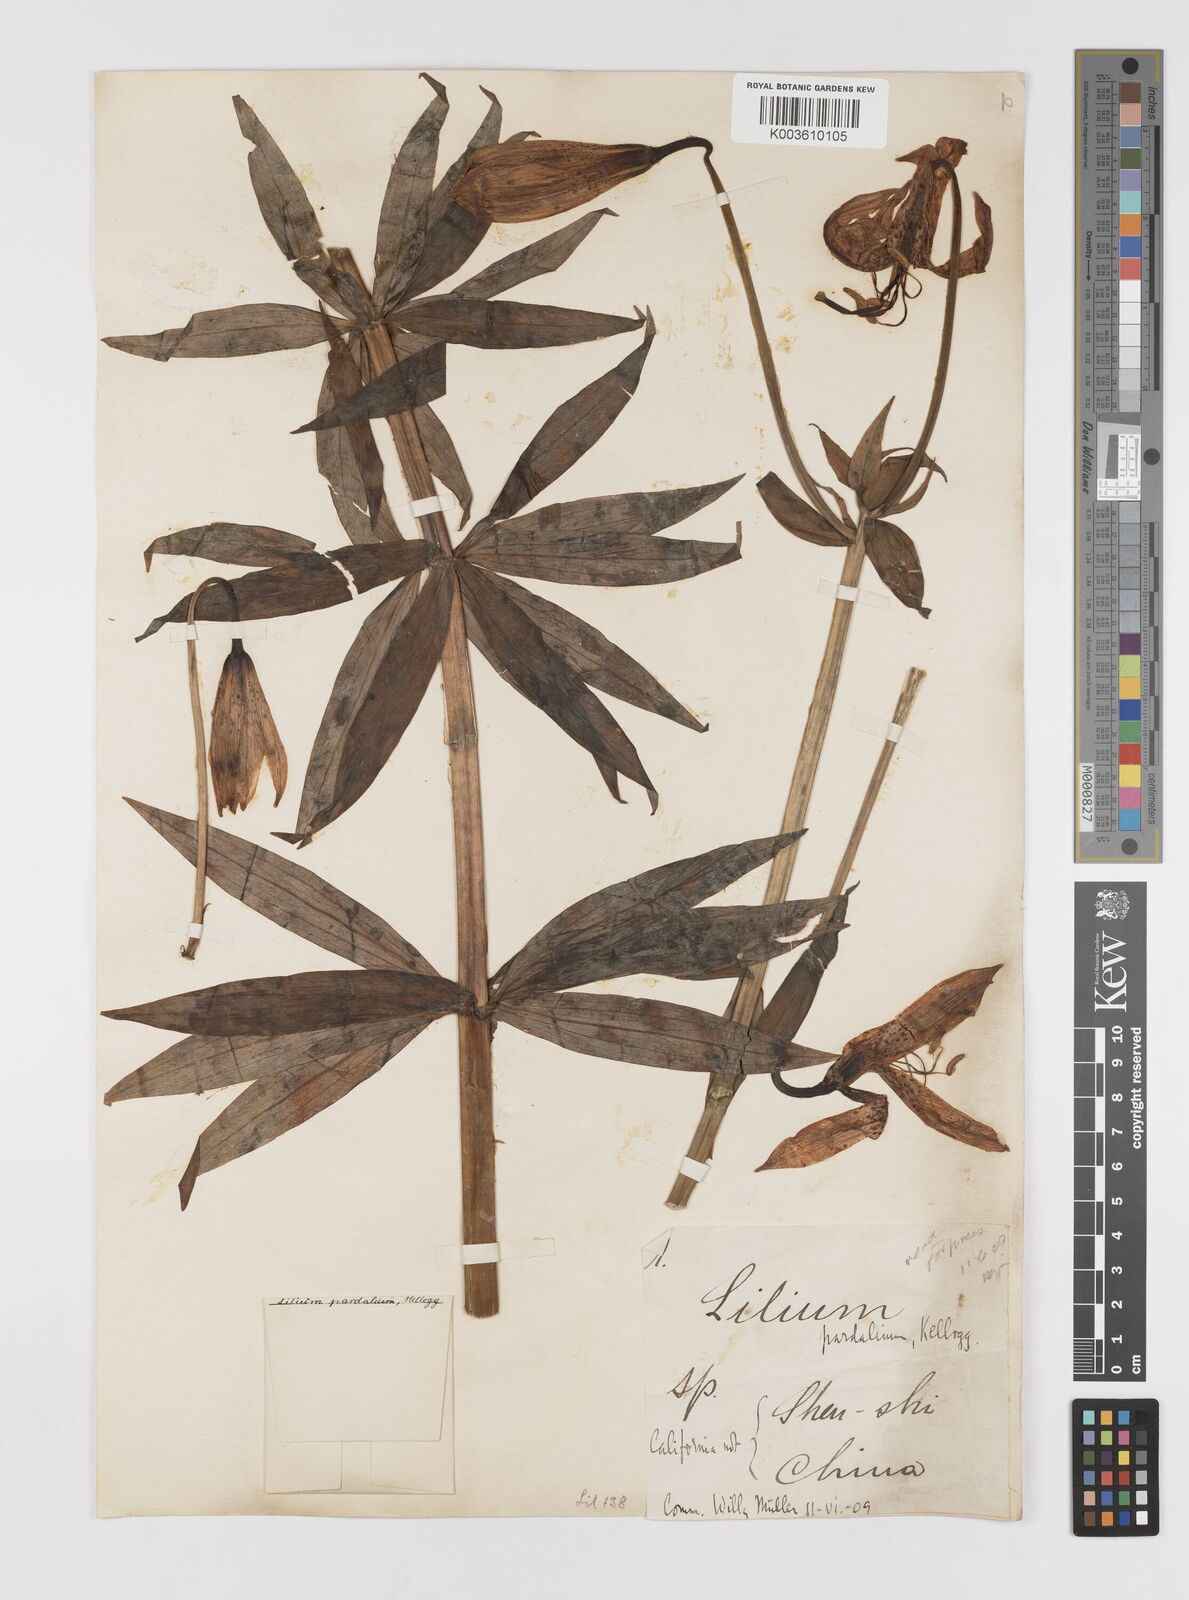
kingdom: Plantae
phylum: Tracheophyta
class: Liliopsida
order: Liliales
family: Liliaceae
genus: Lilium
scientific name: Lilium pardalinum
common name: Panther lily
